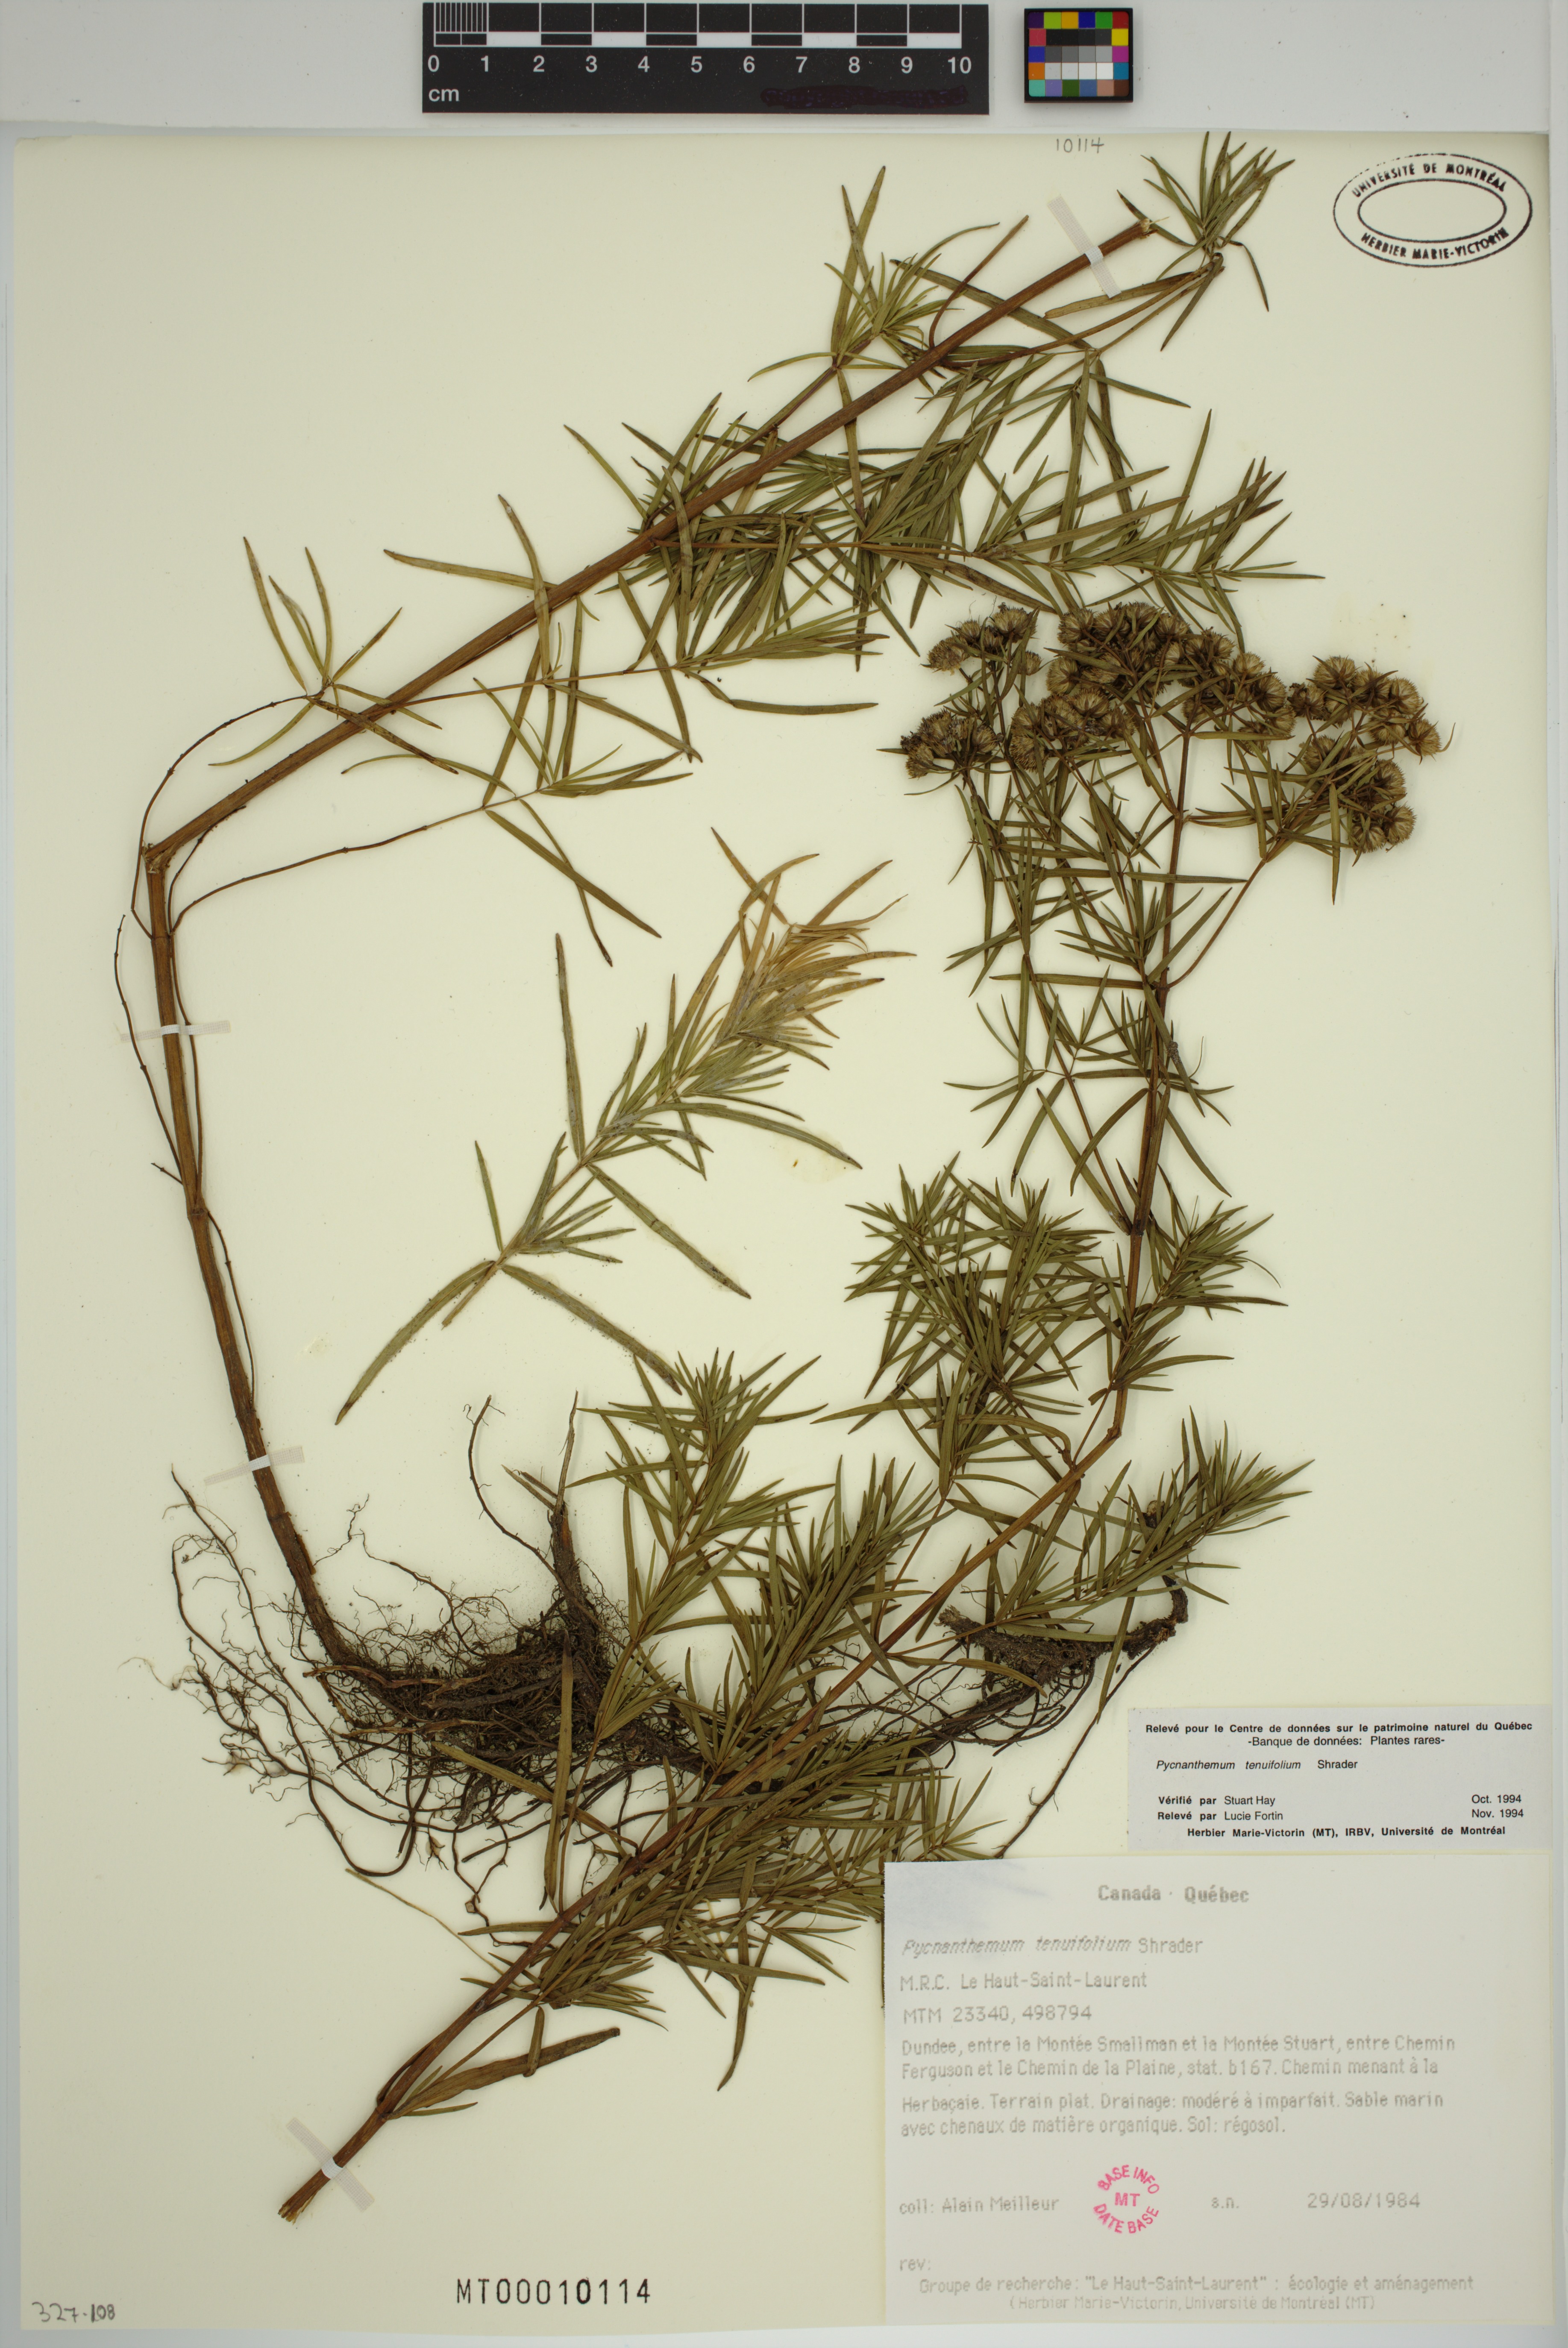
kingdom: Plantae
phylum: Tracheophyta
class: Magnoliopsida
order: Lamiales
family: Lamiaceae
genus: Pycnanthemum
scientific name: Pycnanthemum tenuifolium
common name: Narrow-leaf mountain-mint
